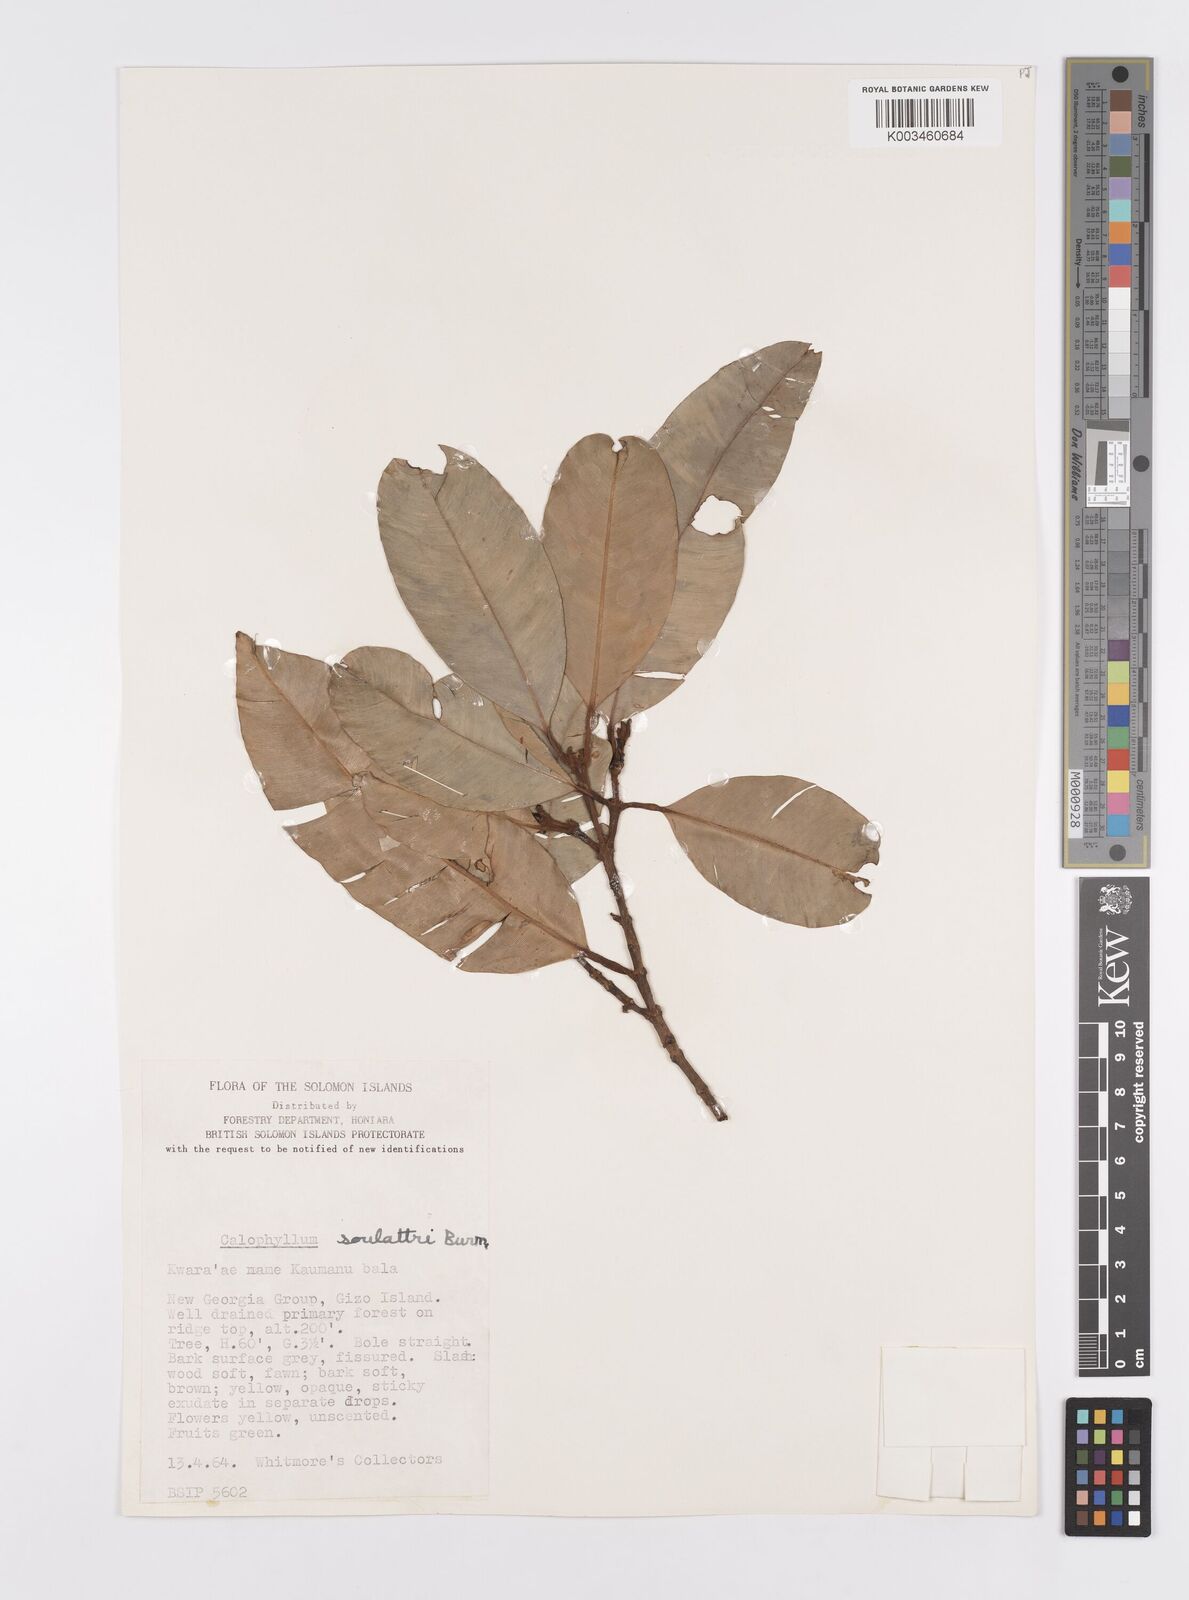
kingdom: Plantae
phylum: Tracheophyta
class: Magnoliopsida
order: Malpighiales
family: Calophyllaceae
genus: Calophyllum
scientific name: Calophyllum soulattri
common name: Bitangoor boonot
